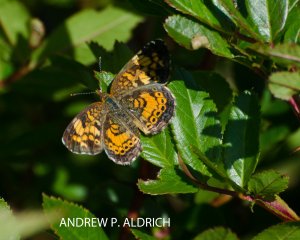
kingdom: Animalia
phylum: Arthropoda
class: Insecta
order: Lepidoptera
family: Nymphalidae
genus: Phyciodes
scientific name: Phyciodes
